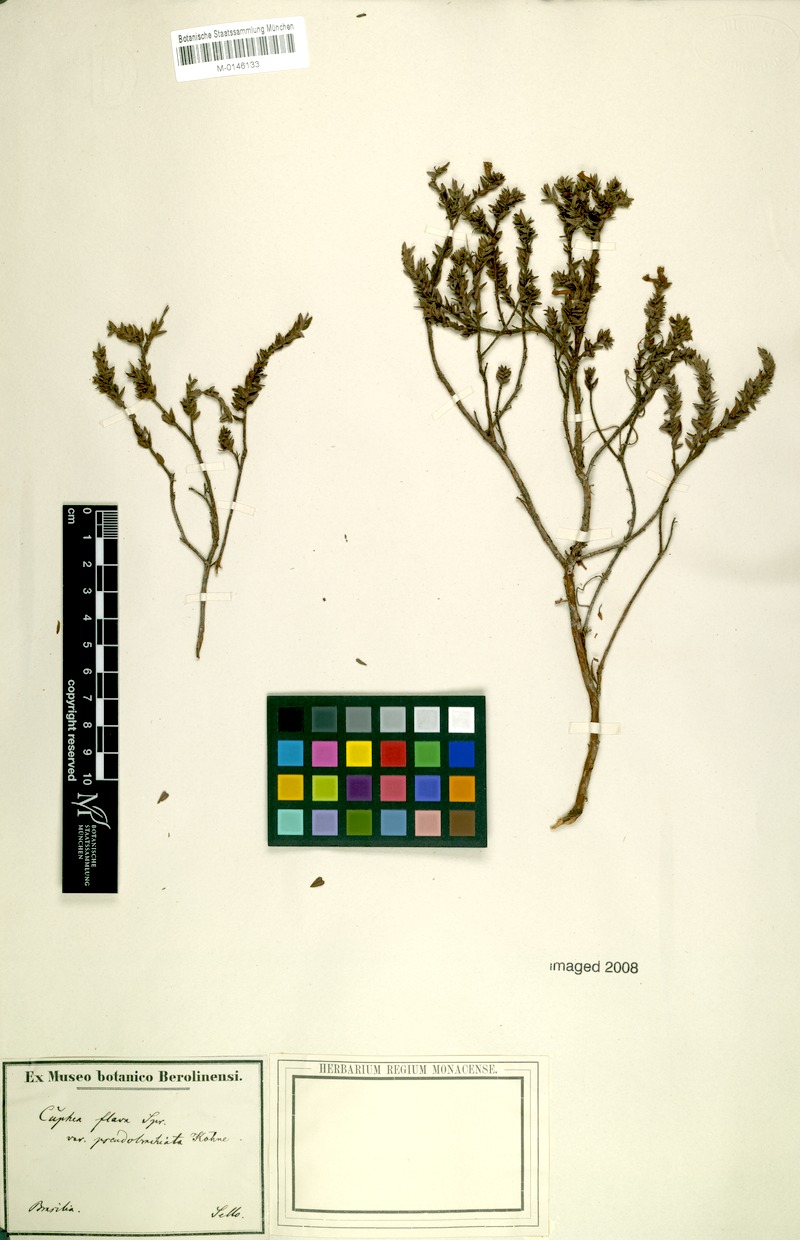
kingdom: Plantae
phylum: Tracheophyta
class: Magnoliopsida
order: Myrtales
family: Lythraceae
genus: Cuphea
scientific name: Cuphea flava
